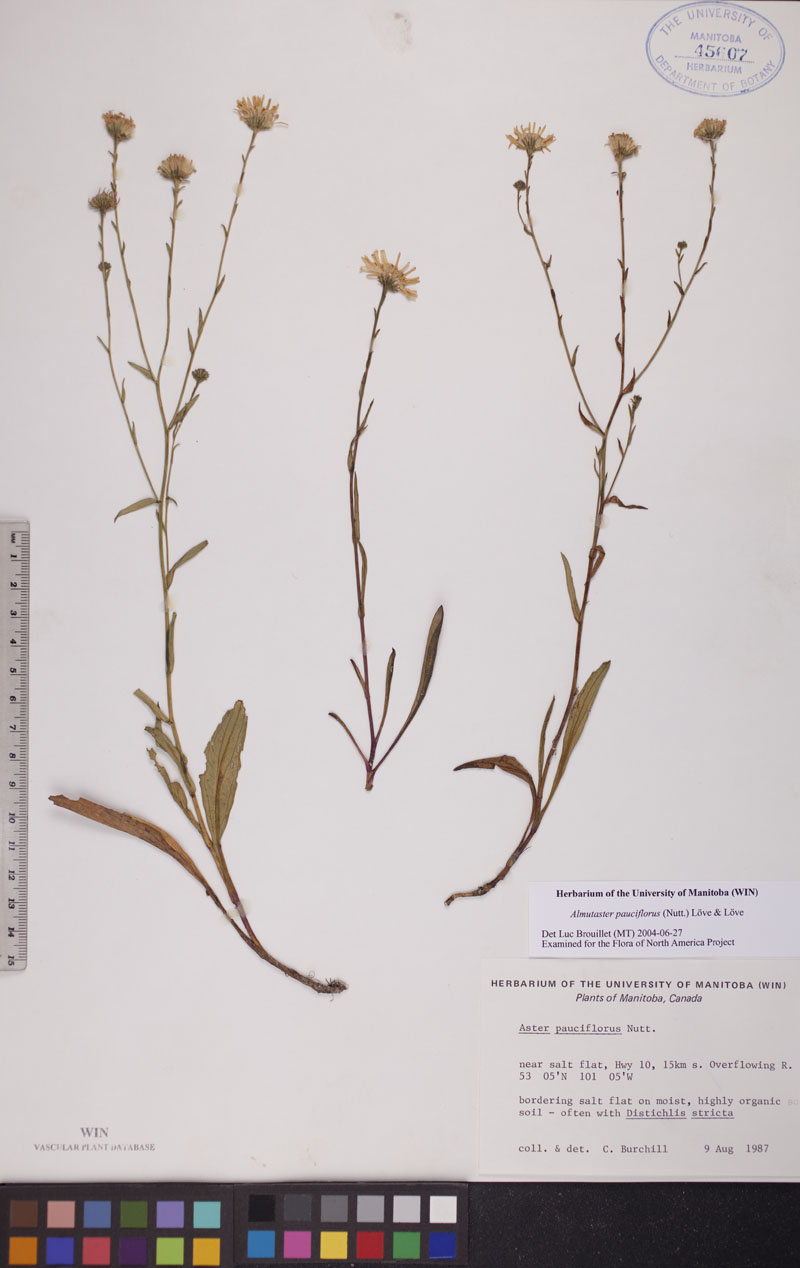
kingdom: Plantae
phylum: Tracheophyta
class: Magnoliopsida
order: Asterales
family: Asteraceae
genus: Almutaster
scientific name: Almutaster pauciflorus
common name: Alkaline aster
